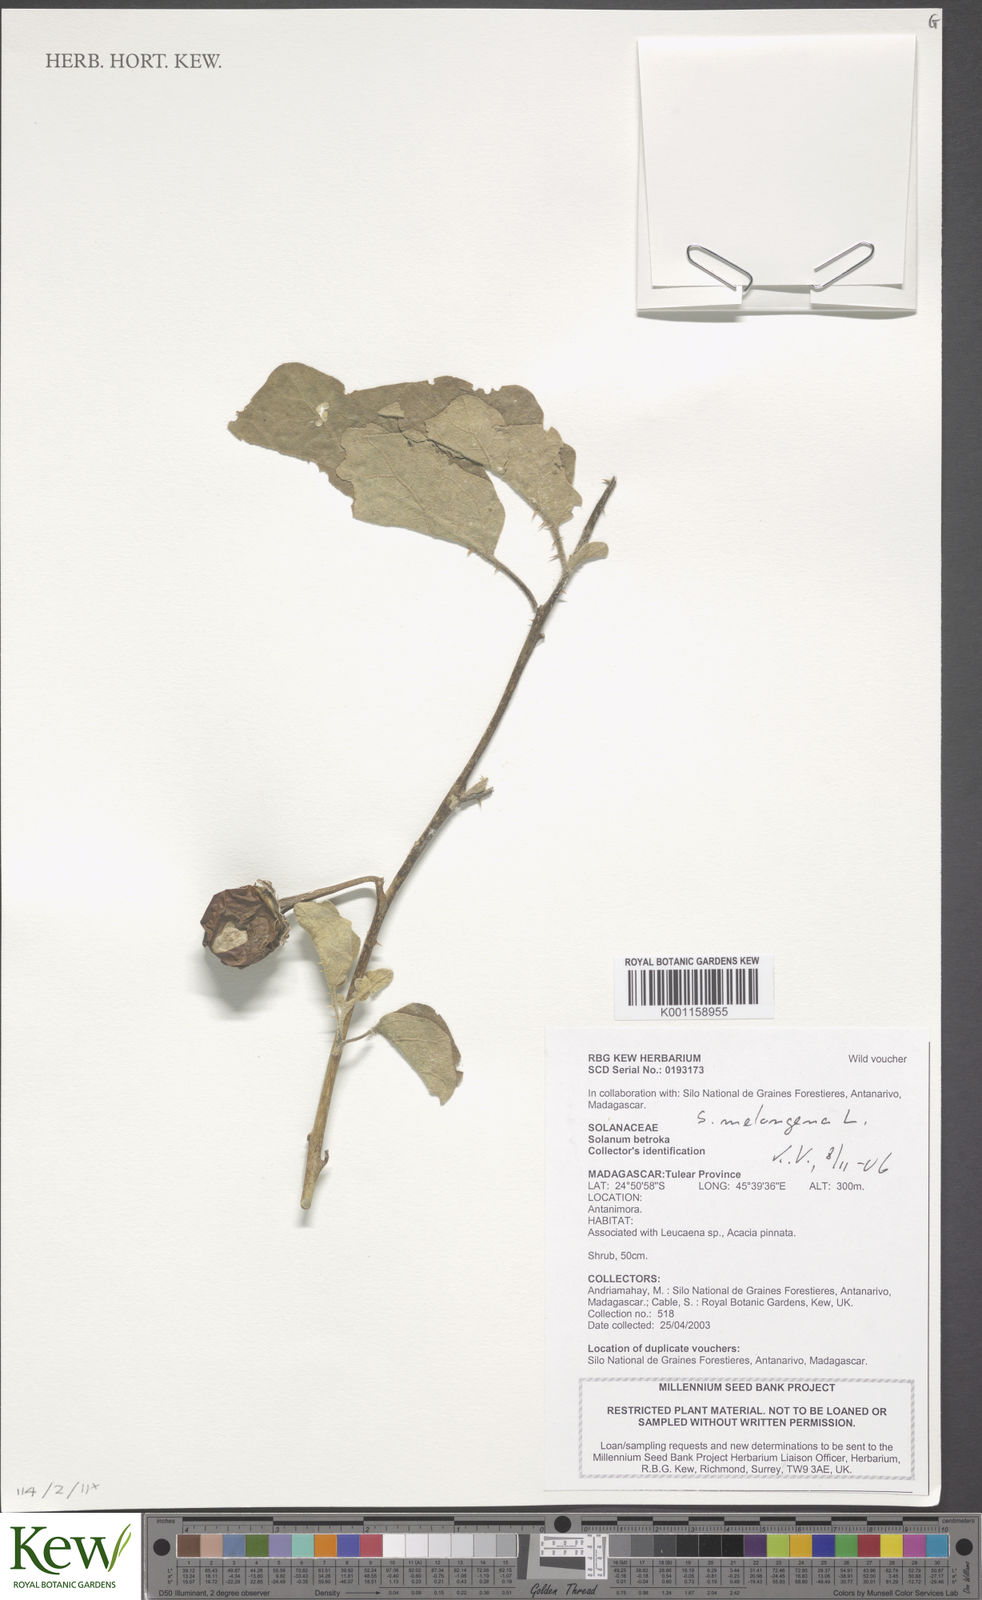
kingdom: Plantae
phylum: Tracheophyta
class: Magnoliopsida
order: Solanales
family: Solanaceae
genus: Solanum
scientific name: Solanum melongena
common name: Eggplant
